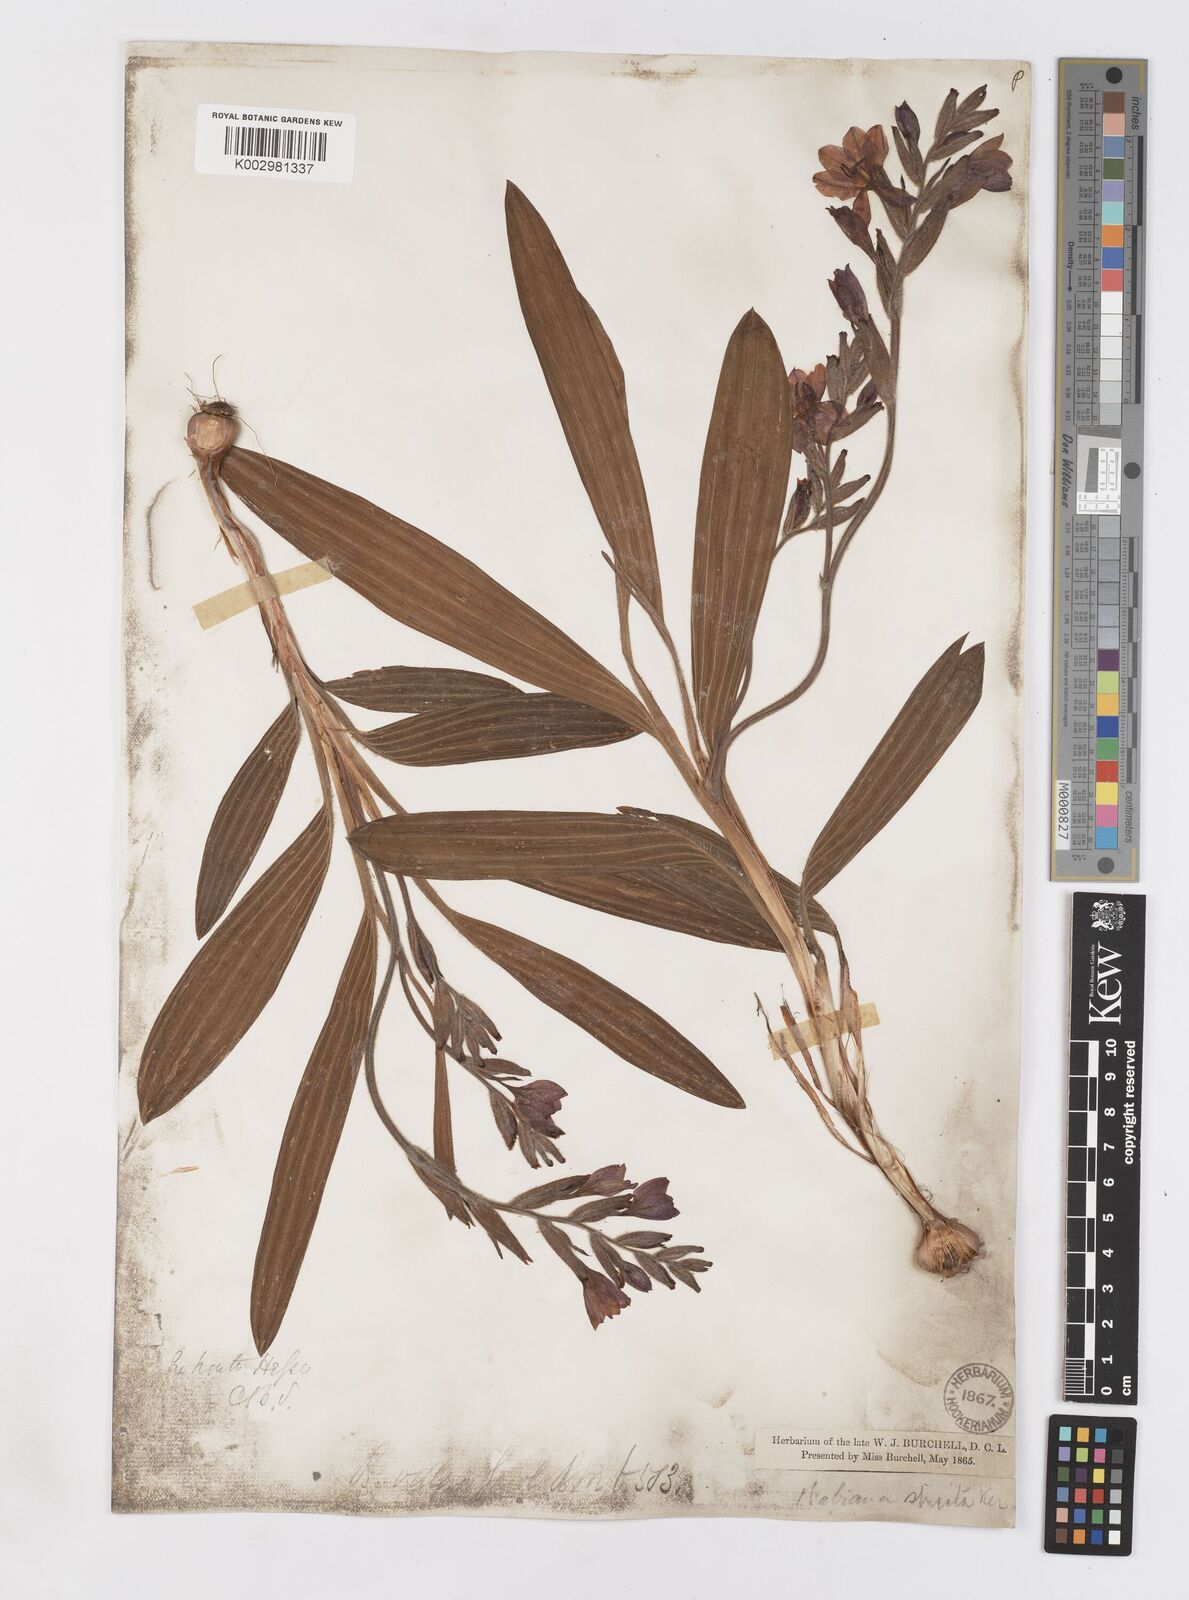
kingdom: Plantae
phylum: Tracheophyta
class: Liliopsida
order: Asparagales
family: Iridaceae
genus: Babiana
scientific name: Babiana villosa
